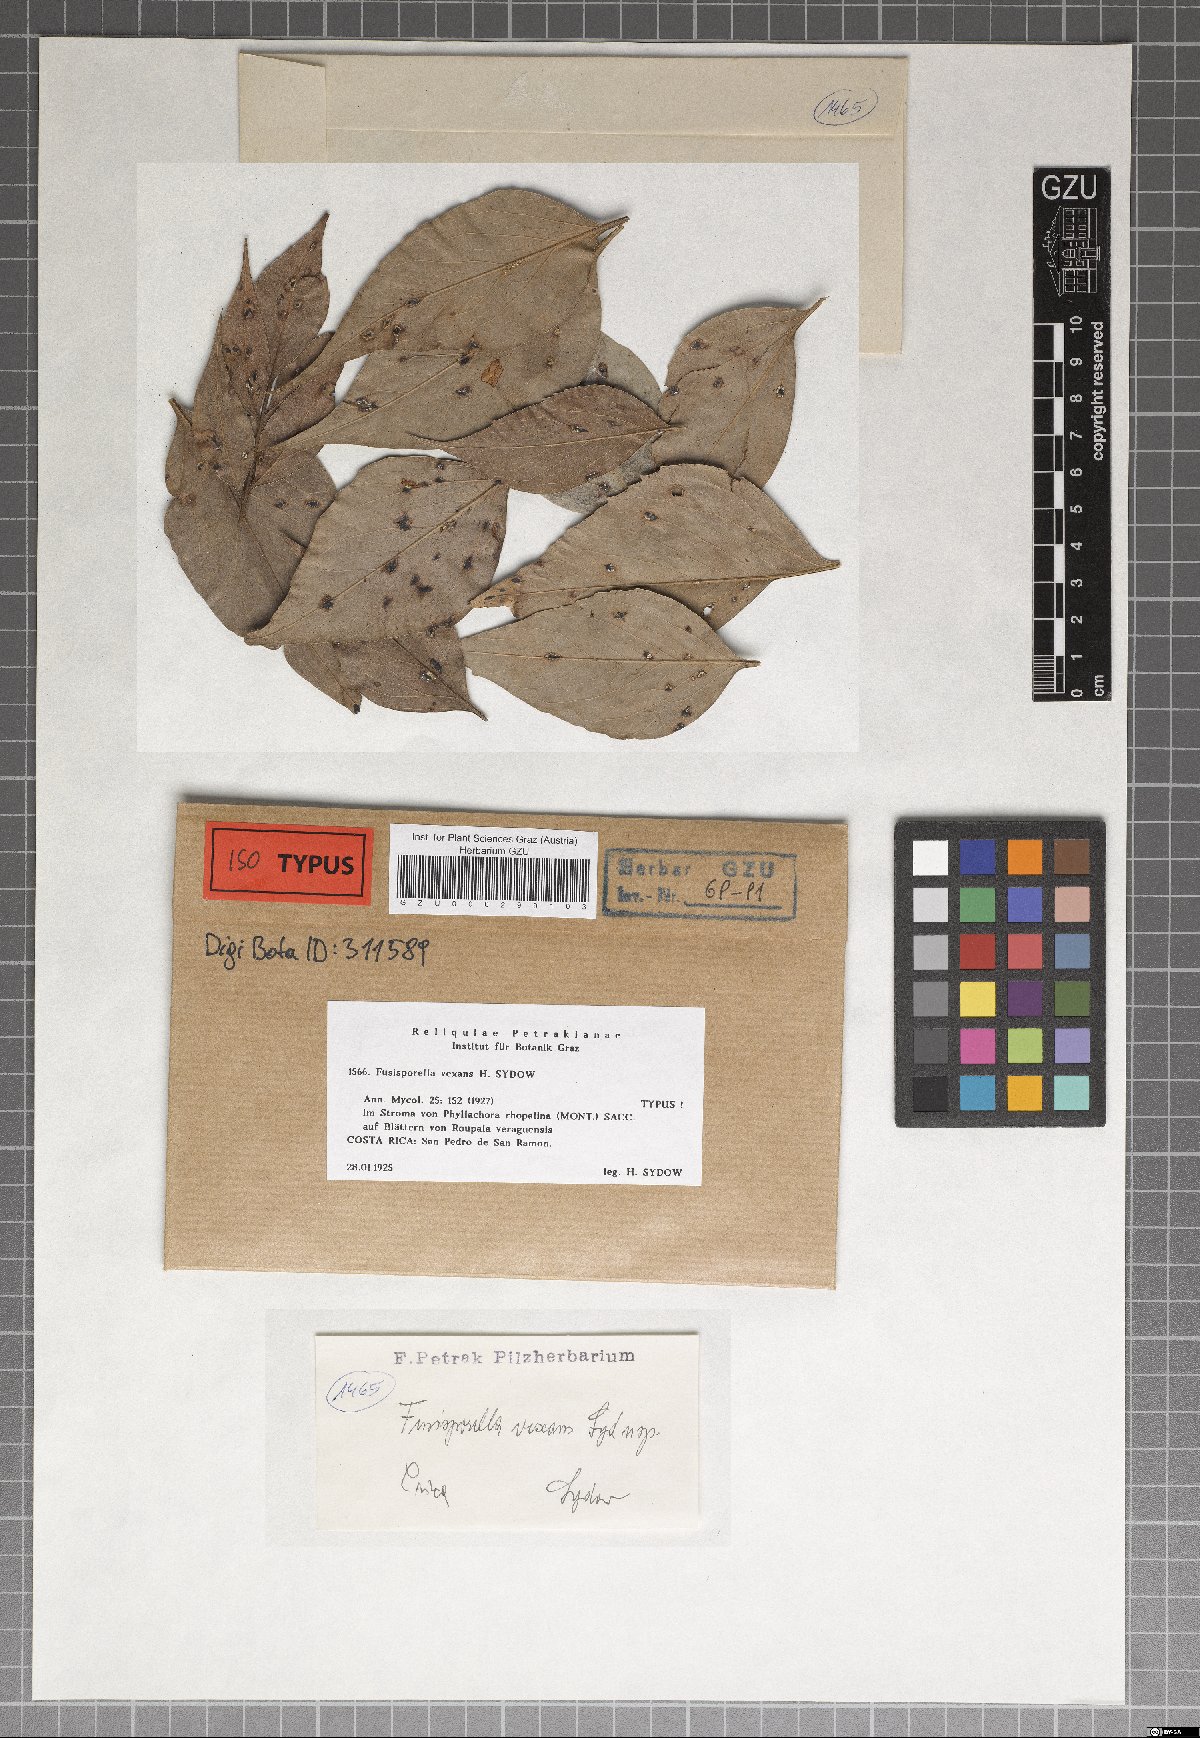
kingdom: Fungi
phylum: Ascomycota
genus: Fusisporella
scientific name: Fusisporella vexans
